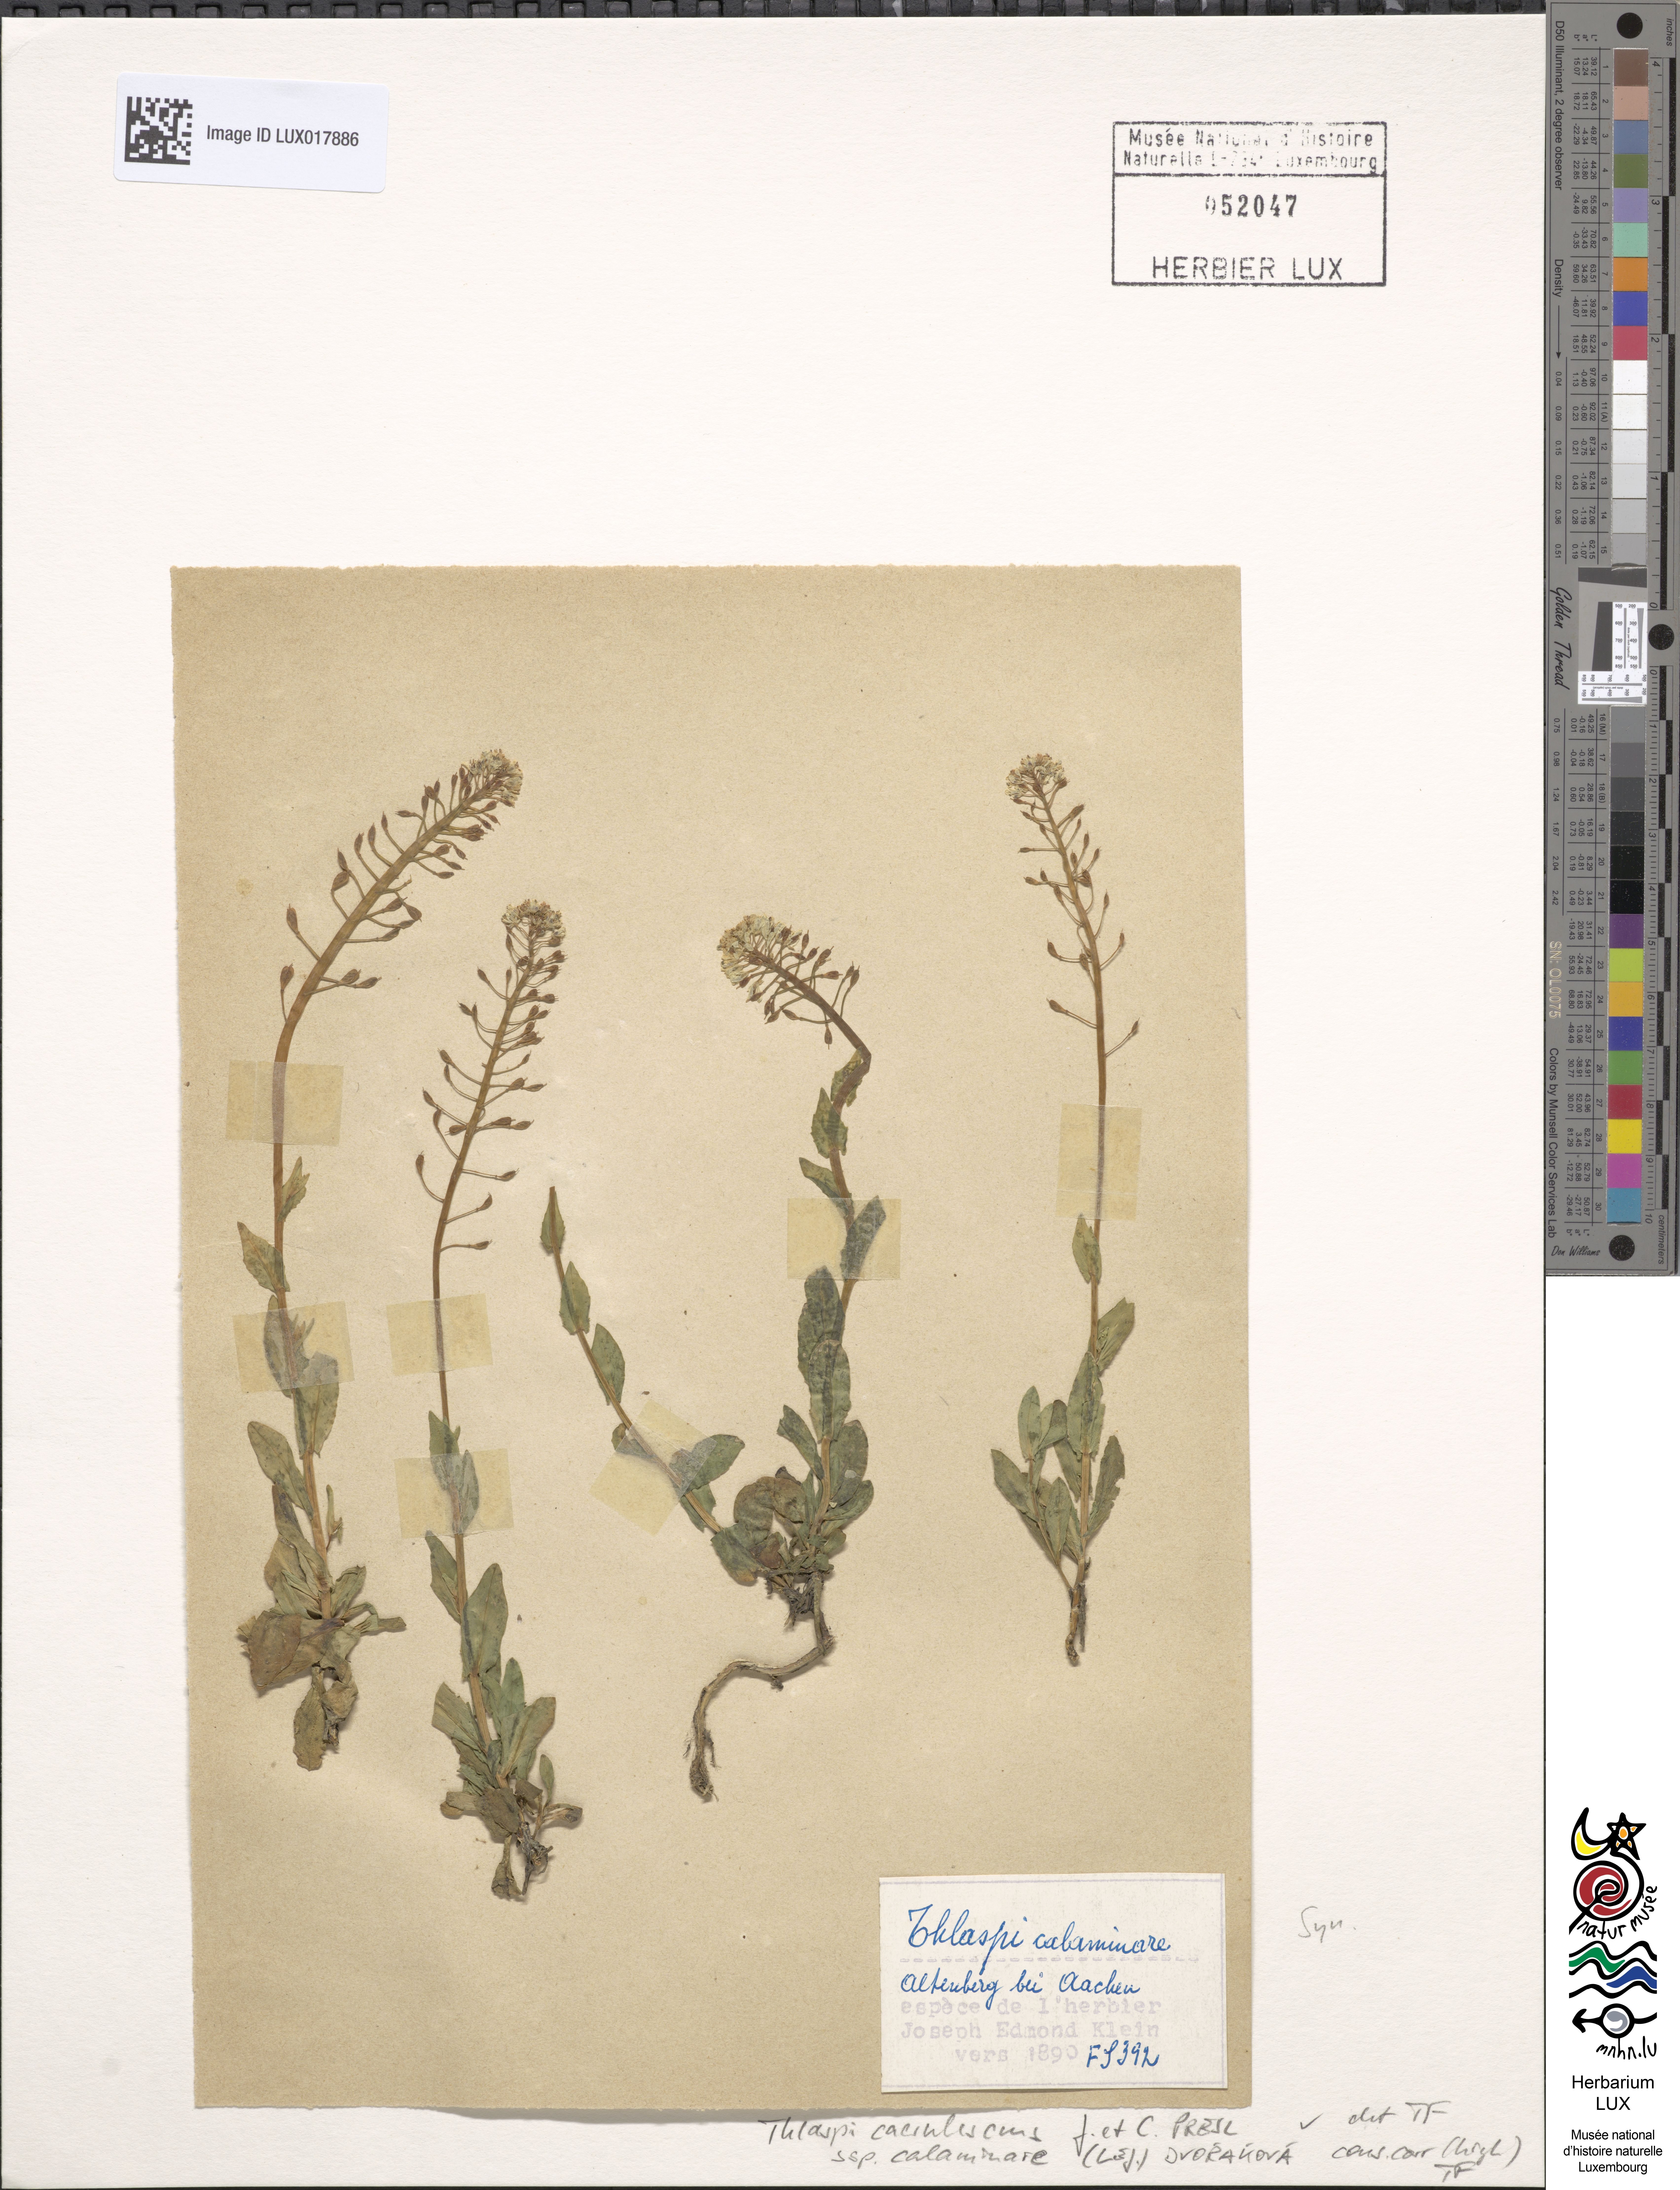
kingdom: Plantae
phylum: Tracheophyta
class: Magnoliopsida
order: Brassicales
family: Brassicaceae
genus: Noccaea
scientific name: Noccaea caerulescens
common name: Alpine pennycress
